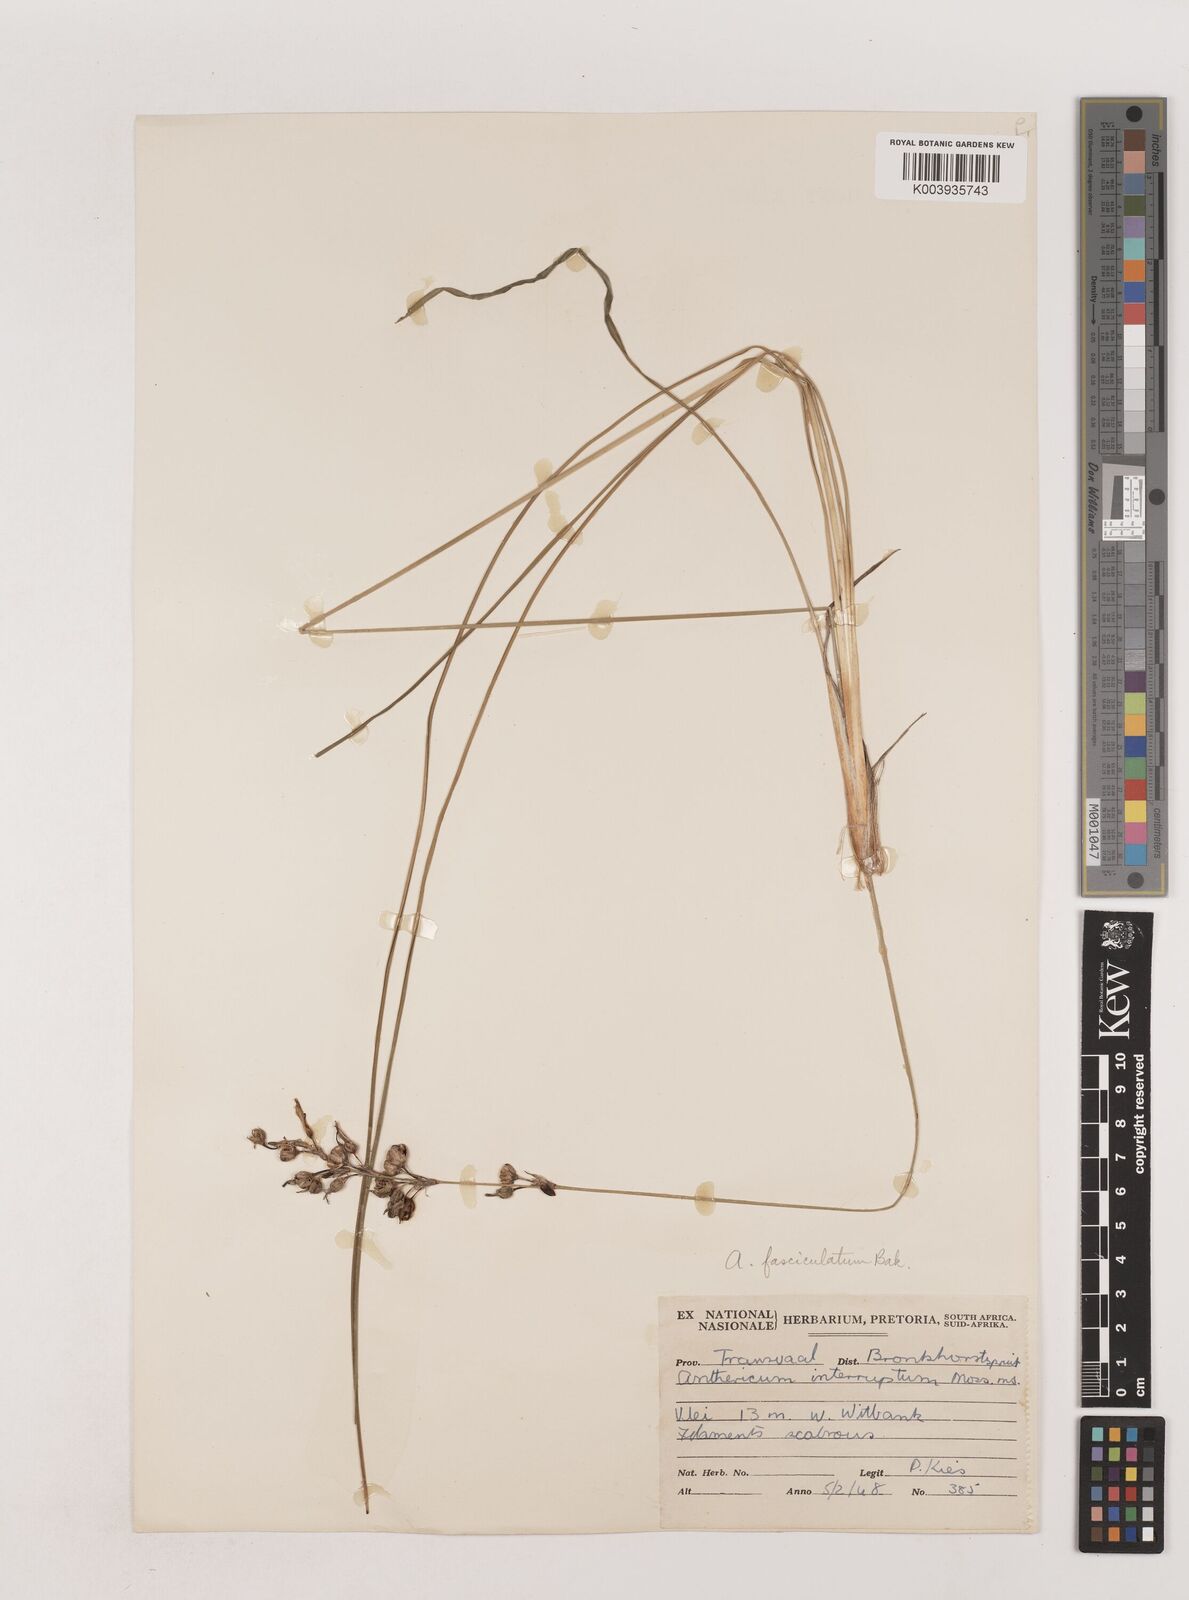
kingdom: Plantae
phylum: Tracheophyta
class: Liliopsida
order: Asparagales
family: Asparagaceae
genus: Chlorophytum
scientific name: Chlorophytum fasciculatum
